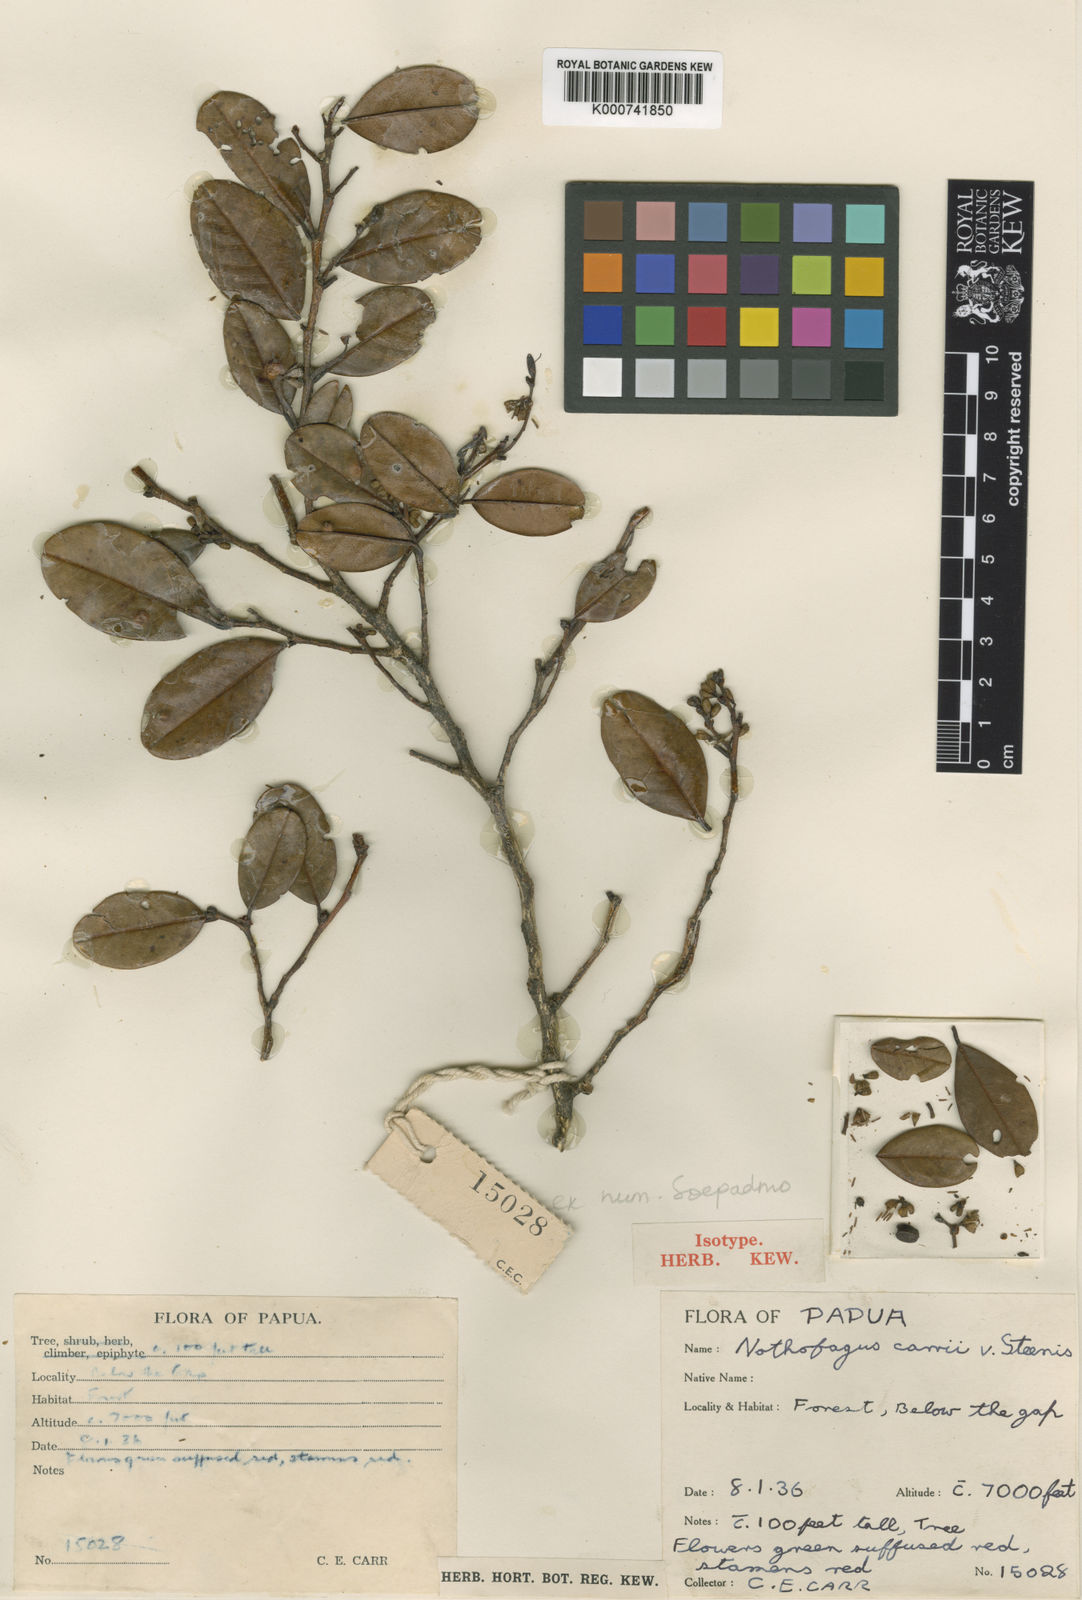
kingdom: Plantae
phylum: Tracheophyta
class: Magnoliopsida
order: Fagales
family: Nothofagaceae
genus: Nothofagus
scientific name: Nothofagus carrii
